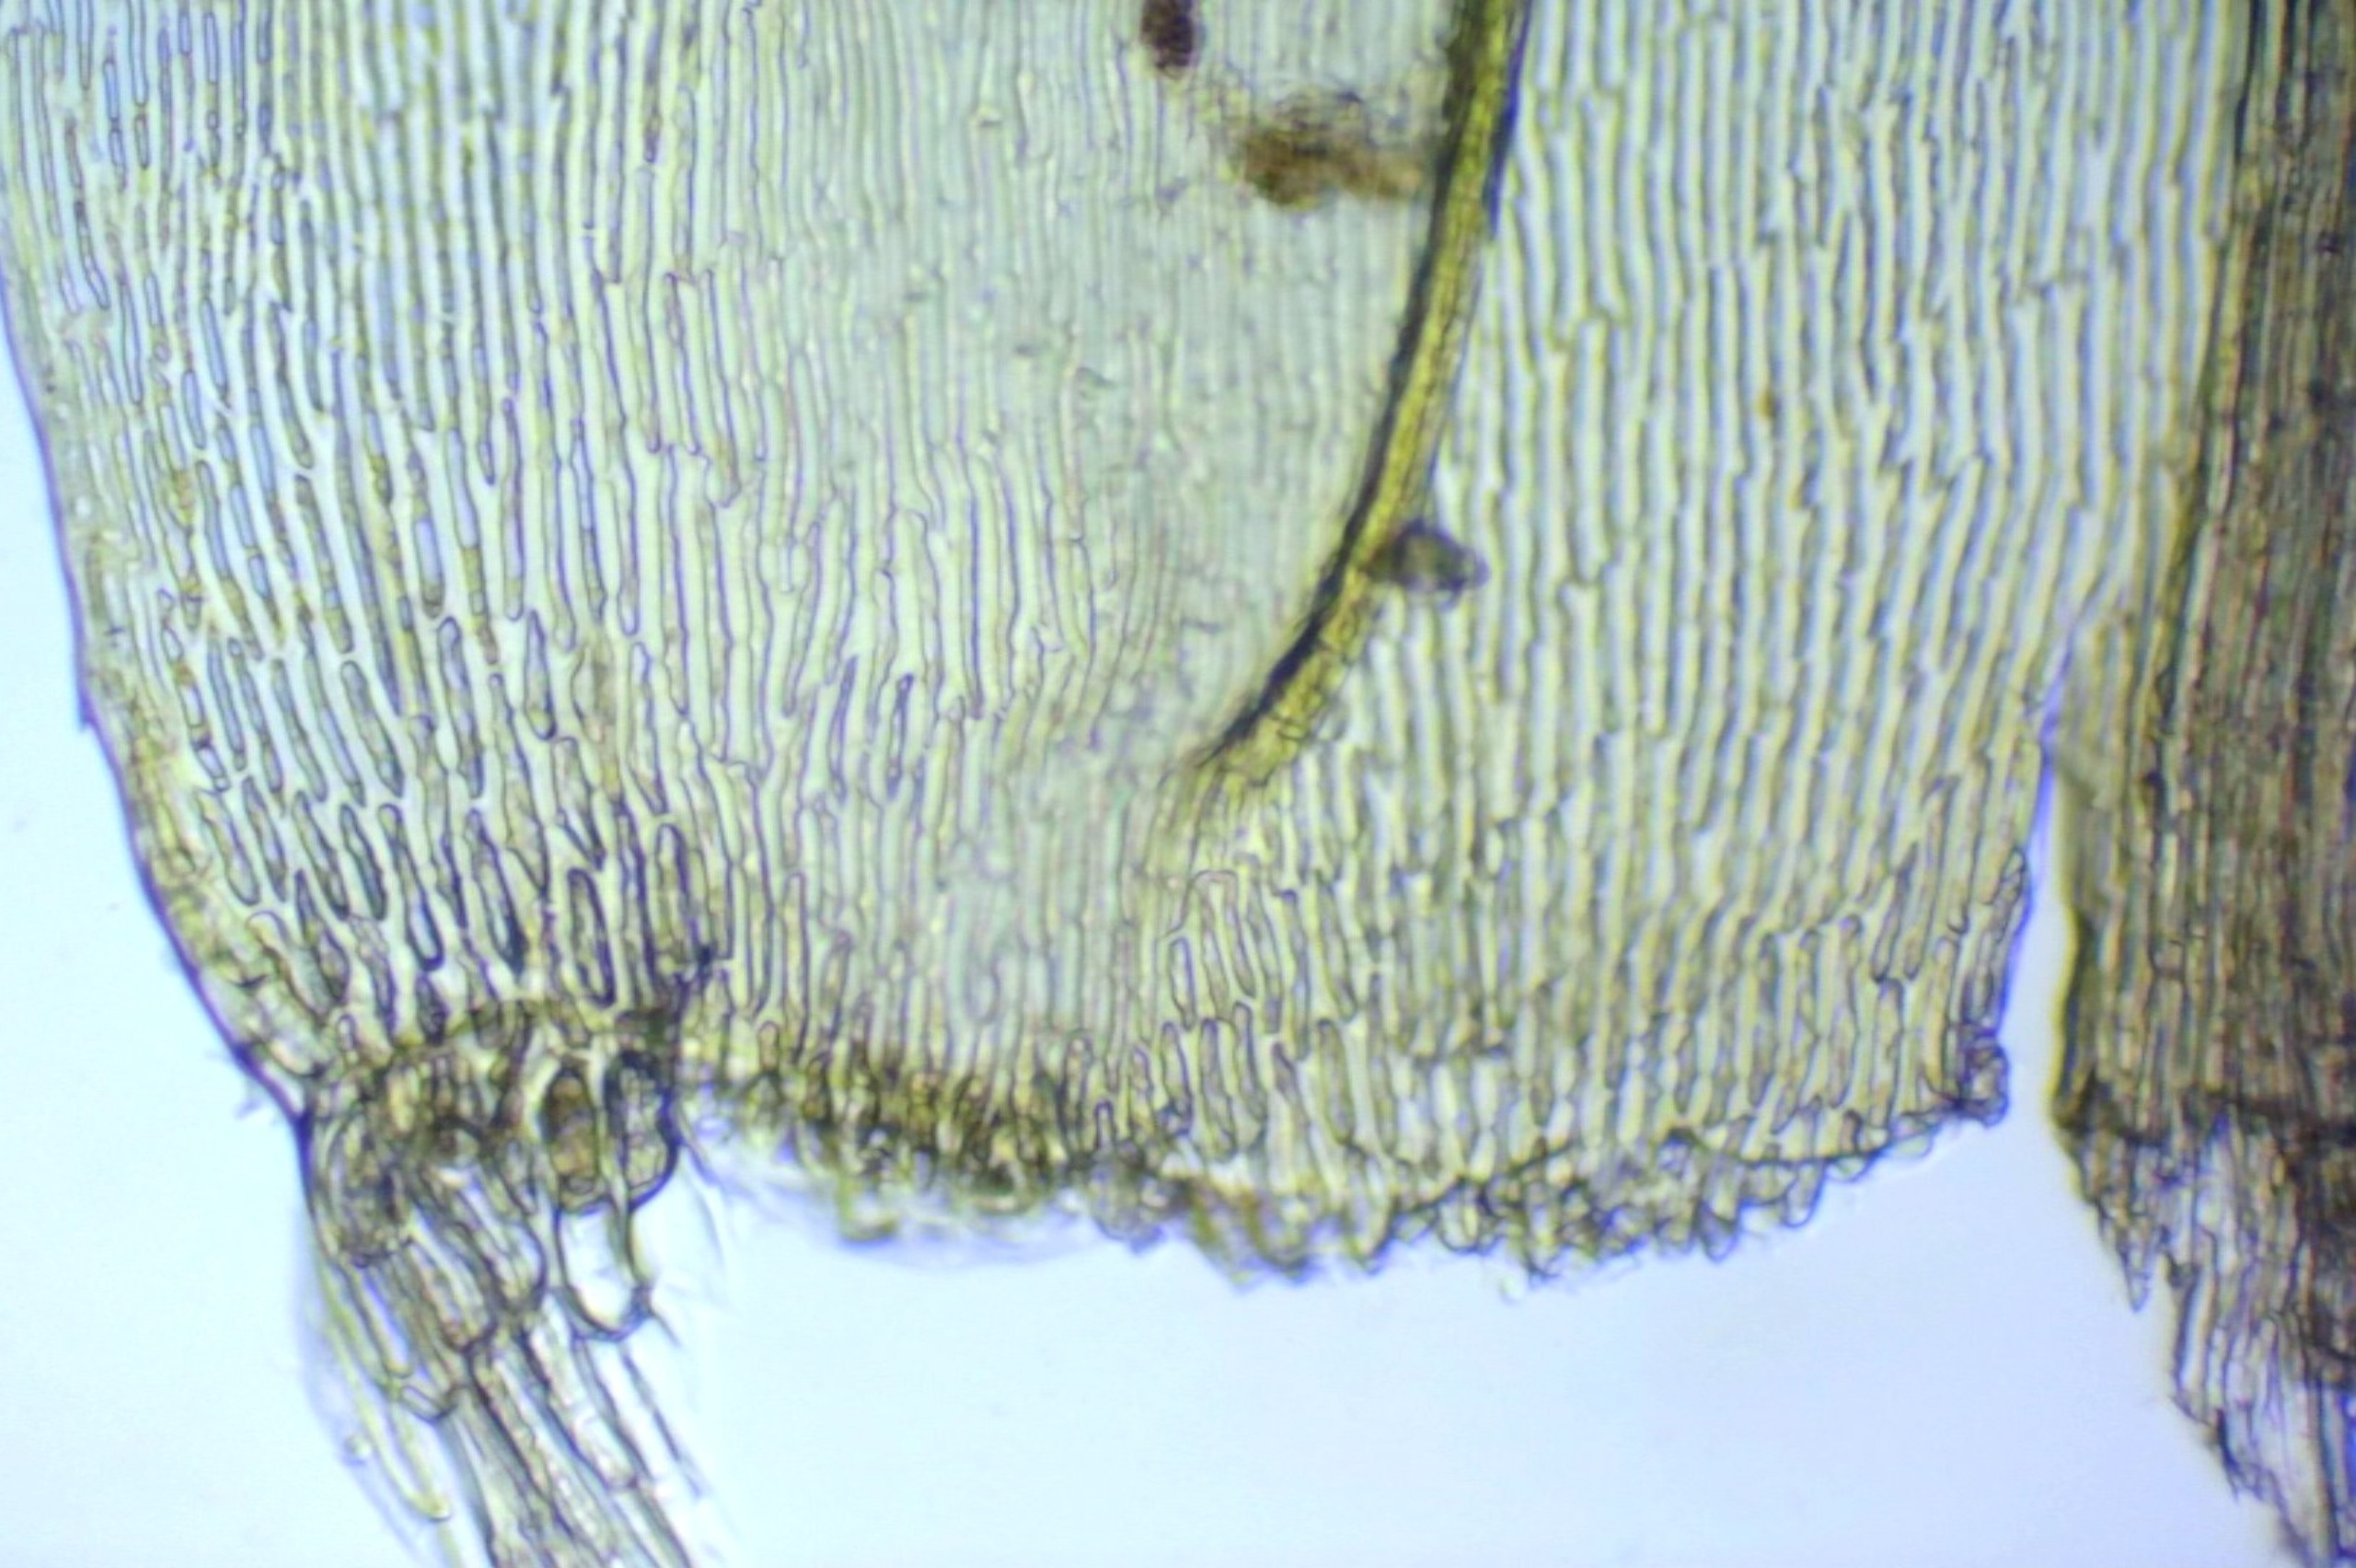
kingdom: Plantae
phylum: Bryophyta
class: Bryopsida
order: Hypnales
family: Amblystegiaceae
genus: Tomentypnum
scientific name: Tomentypnum nitens
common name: Glinsende kærmos
